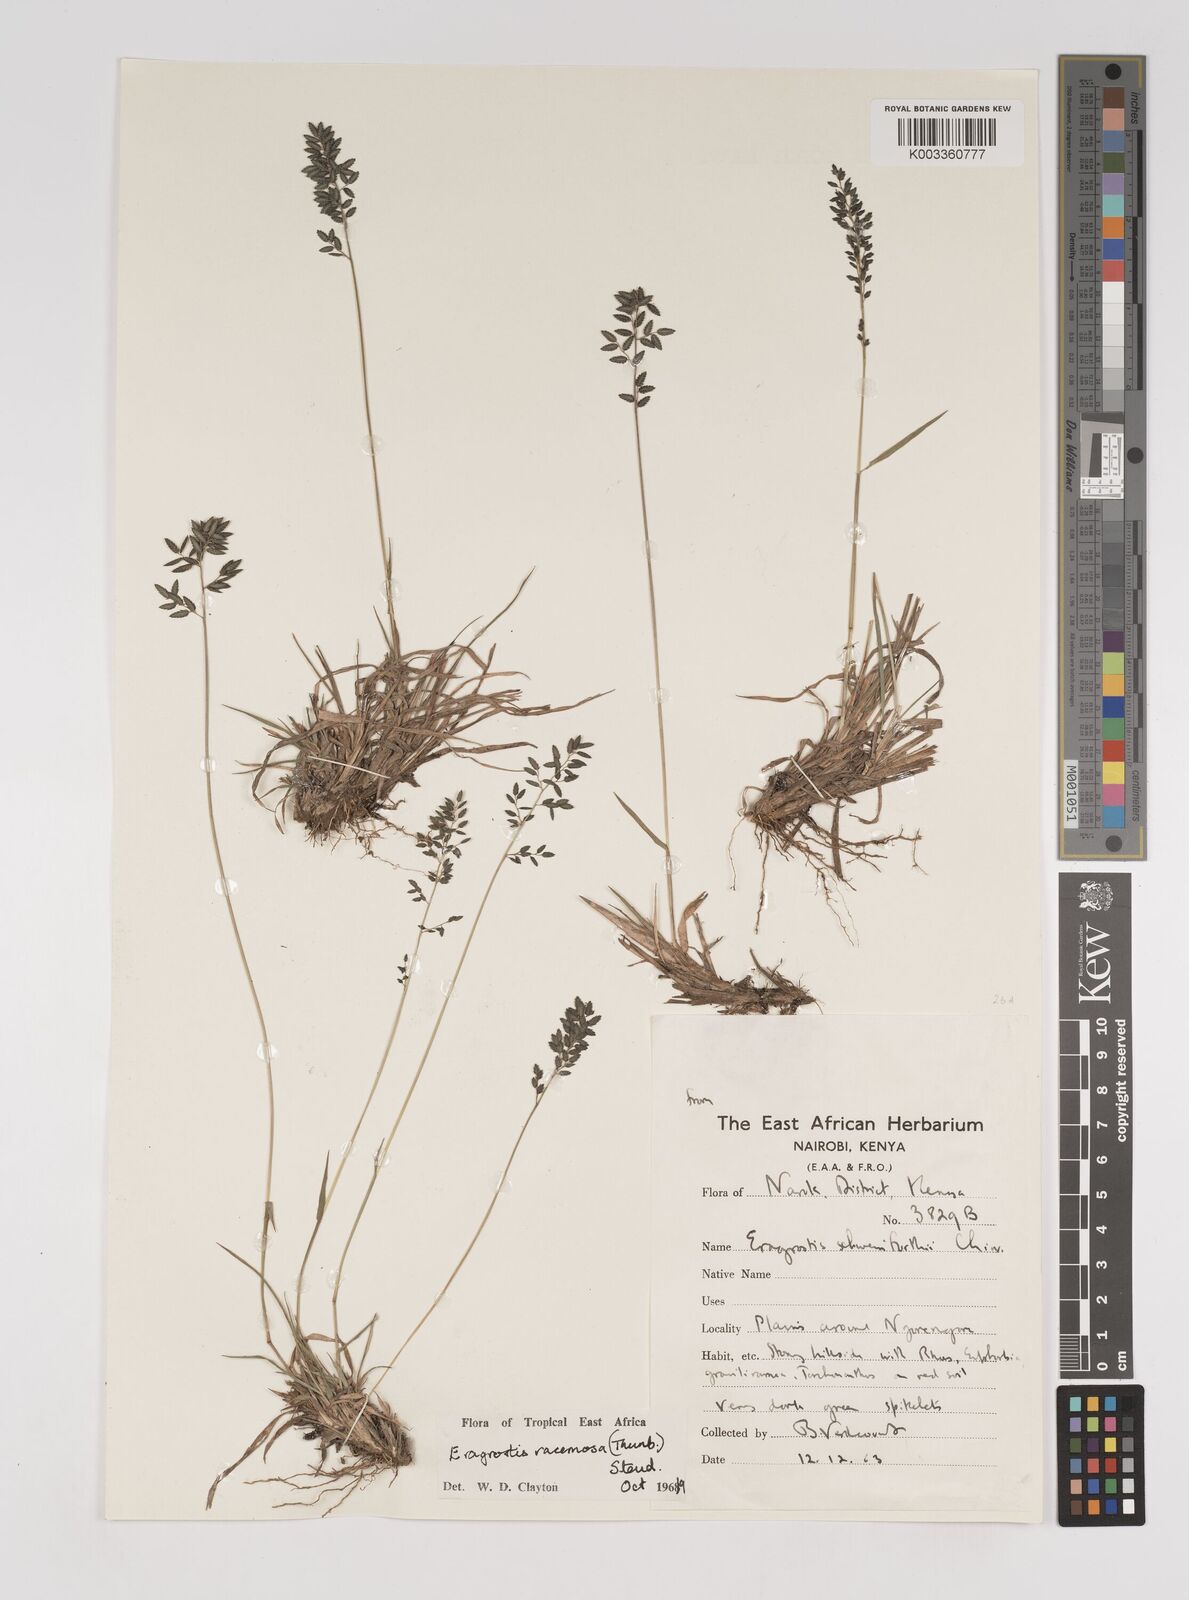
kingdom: Plantae
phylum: Tracheophyta
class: Liliopsida
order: Poales
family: Poaceae
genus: Eragrostis
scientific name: Eragrostis racemosa
